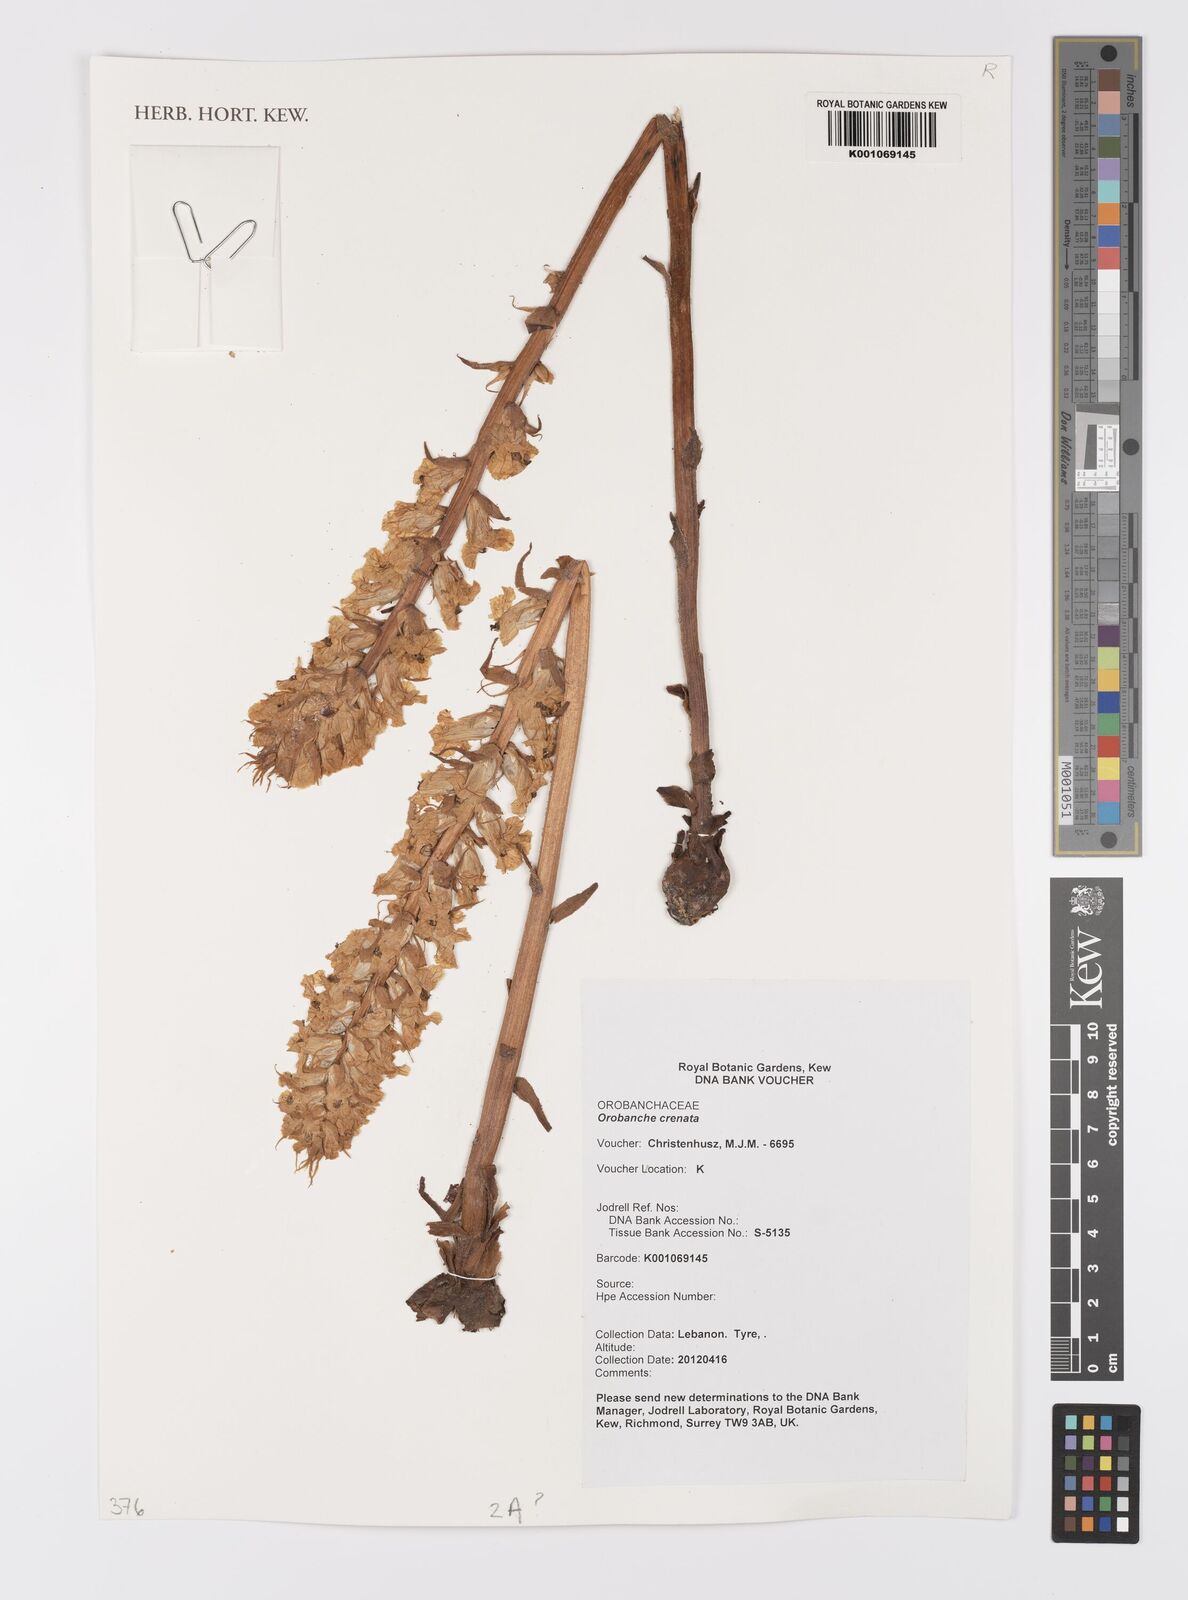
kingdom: Plantae
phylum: Tracheophyta
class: Magnoliopsida
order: Lamiales
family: Orobanchaceae
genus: Orobanche
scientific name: Orobanche crenata
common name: Bean broomrape
